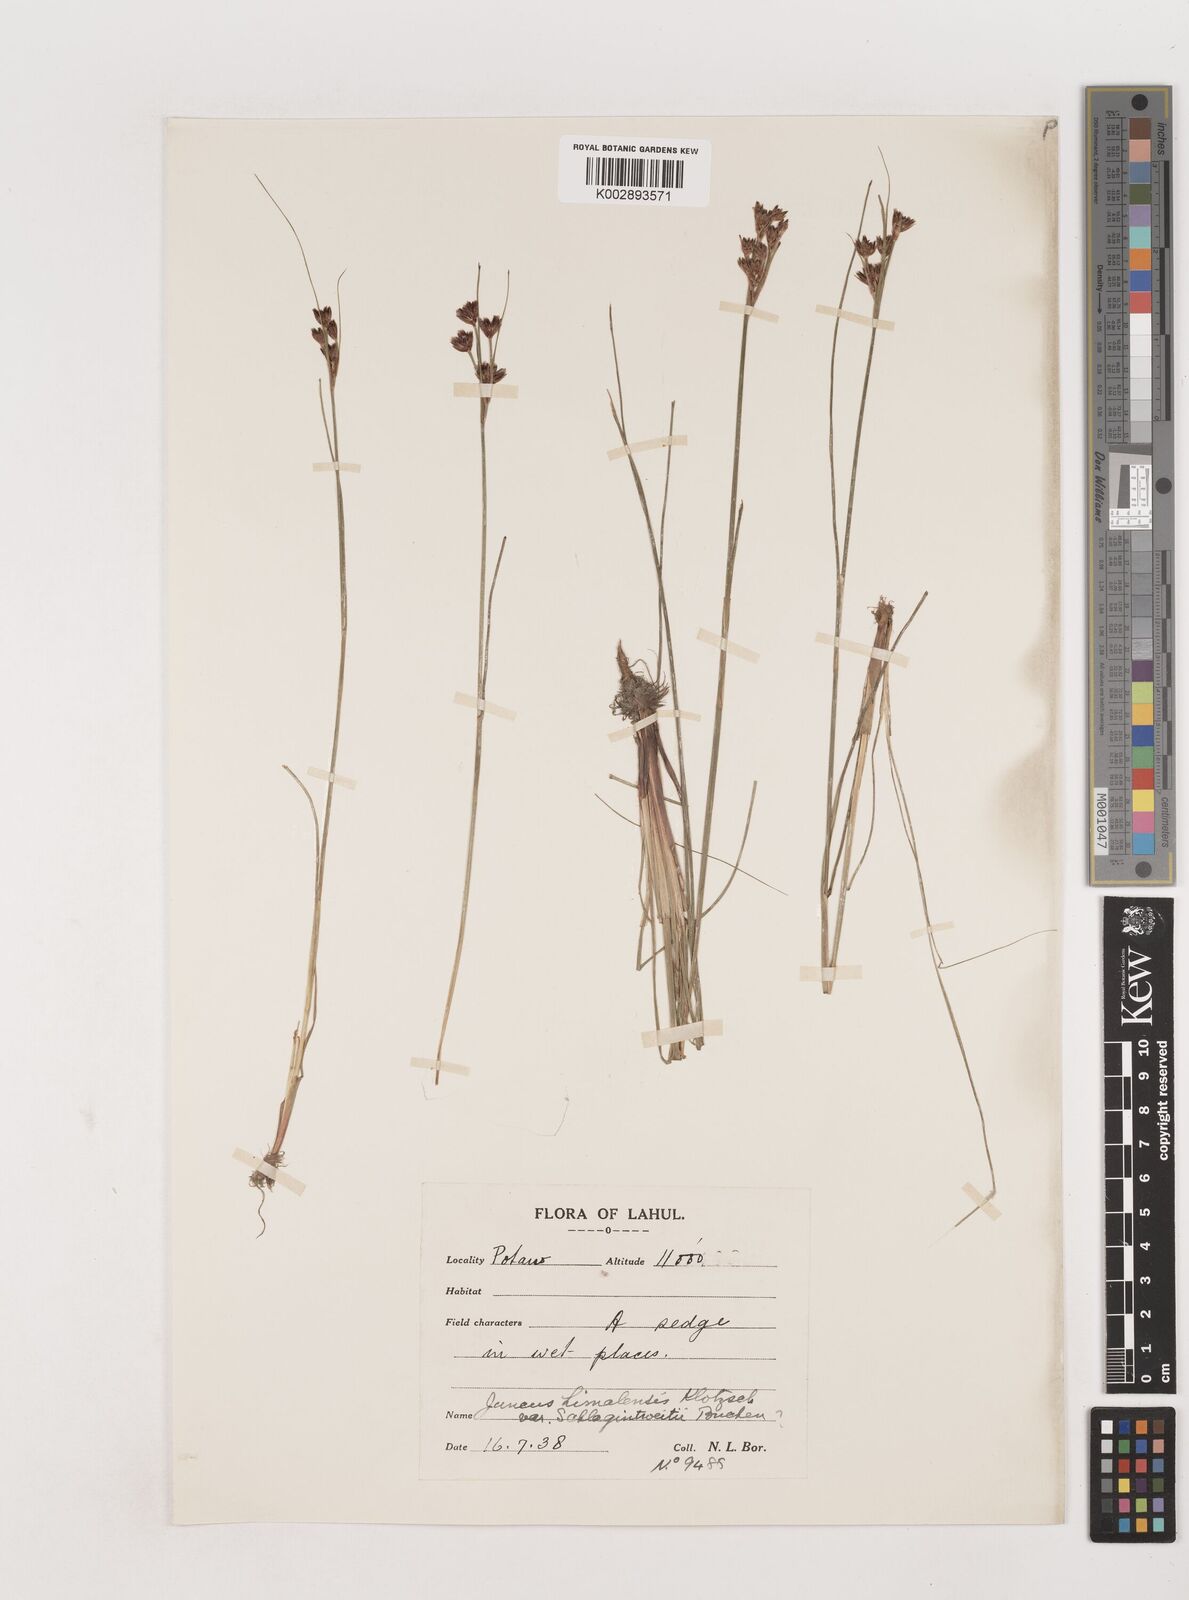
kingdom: Plantae
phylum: Tracheophyta
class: Liliopsida
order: Poales
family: Juncaceae
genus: Juncus
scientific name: Juncus himalensis
